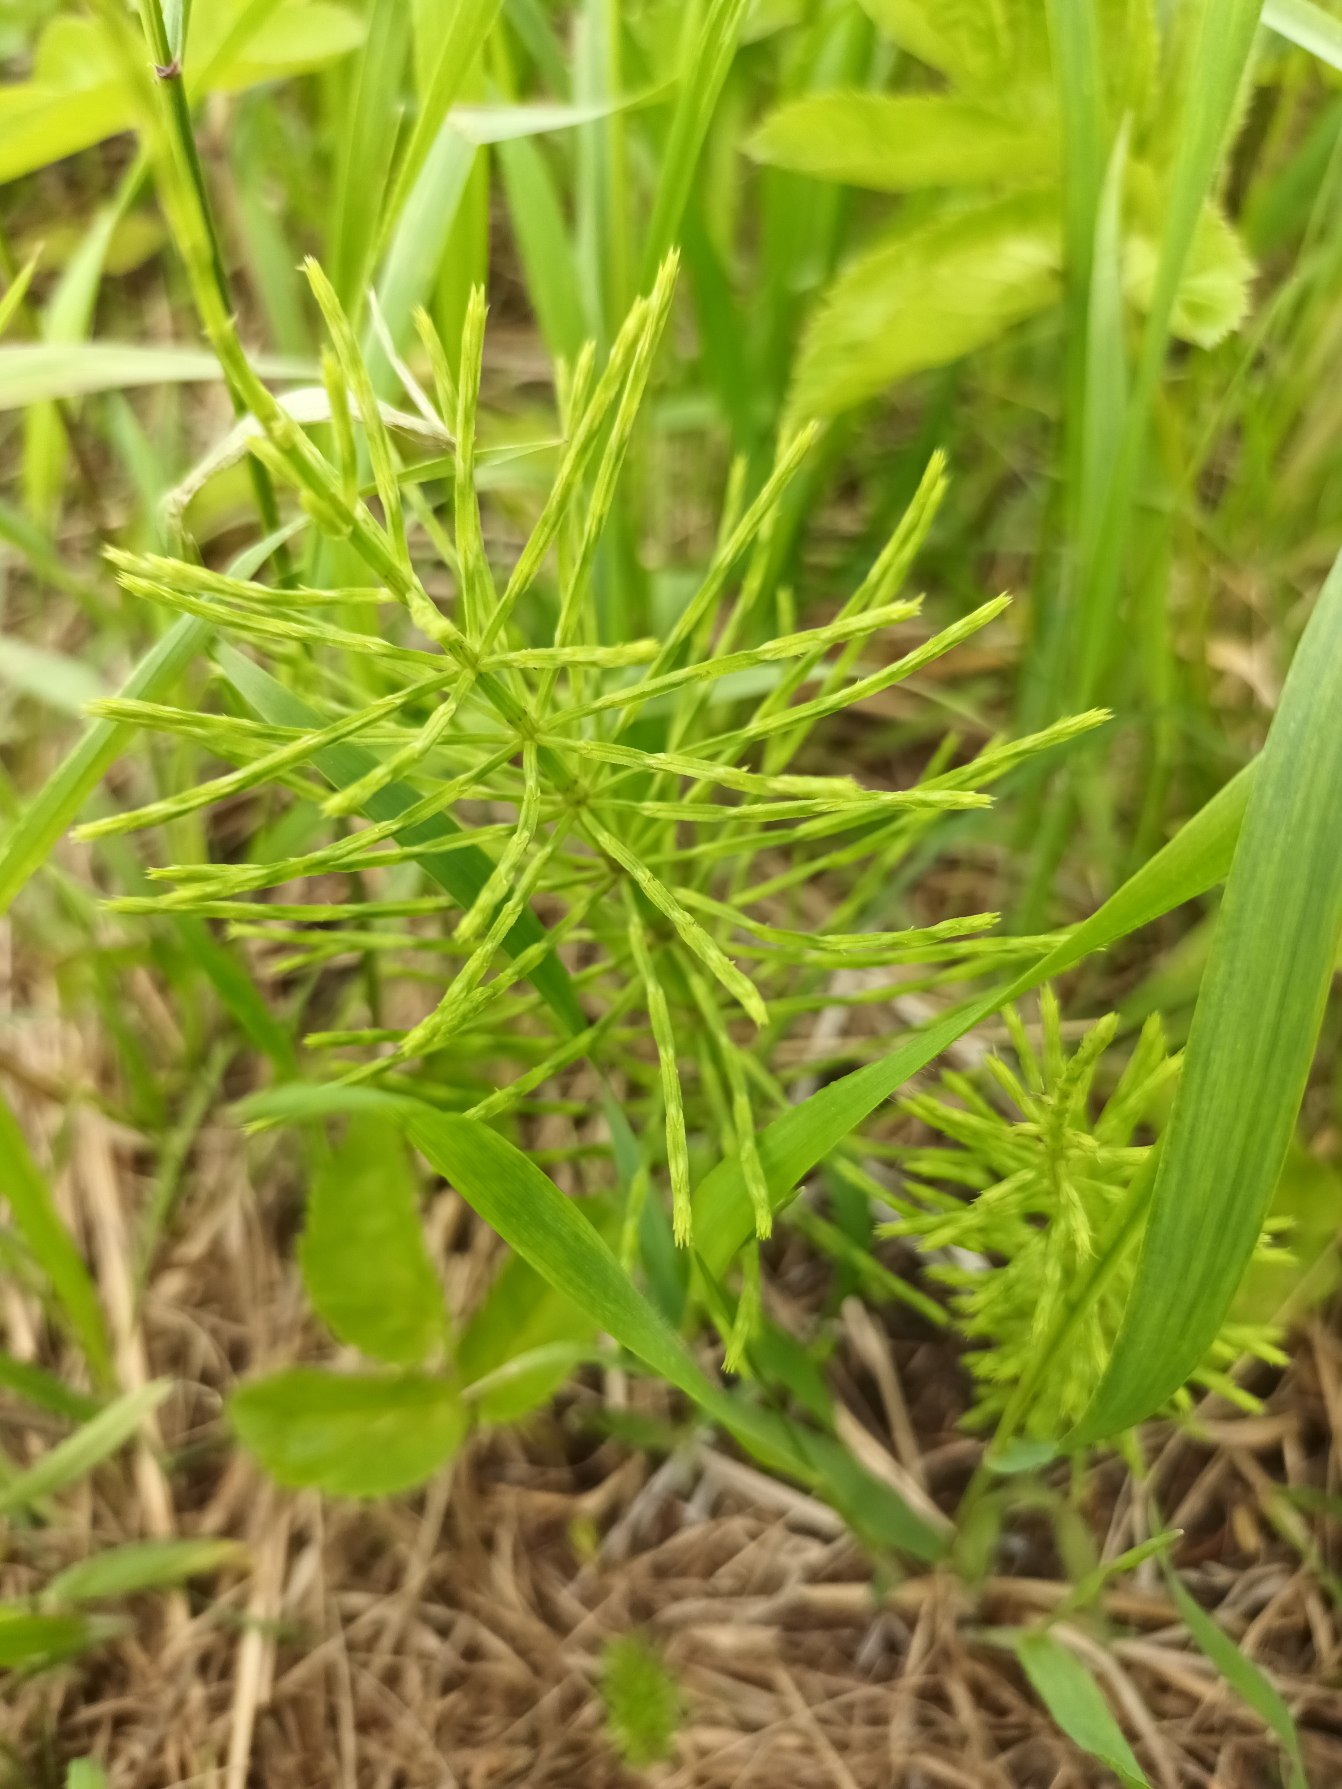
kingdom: Plantae
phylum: Tracheophyta
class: Polypodiopsida
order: Equisetales
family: Equisetaceae
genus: Equisetum
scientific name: Equisetum arvense
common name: Ager-padderok
